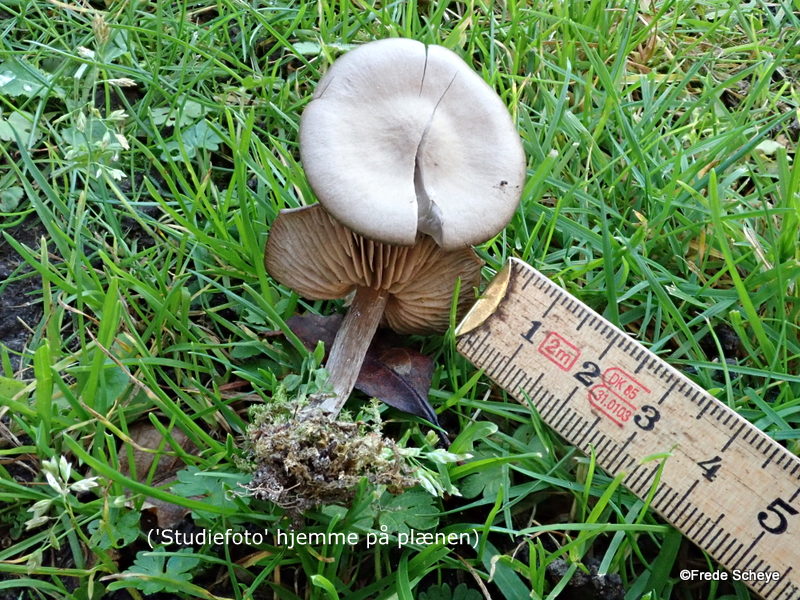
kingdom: Fungi
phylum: Basidiomycota
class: Agaricomycetes
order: Agaricales
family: Entolomataceae
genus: Entoloma
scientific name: Entoloma sericeum
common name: silkeglinsende rødblad
